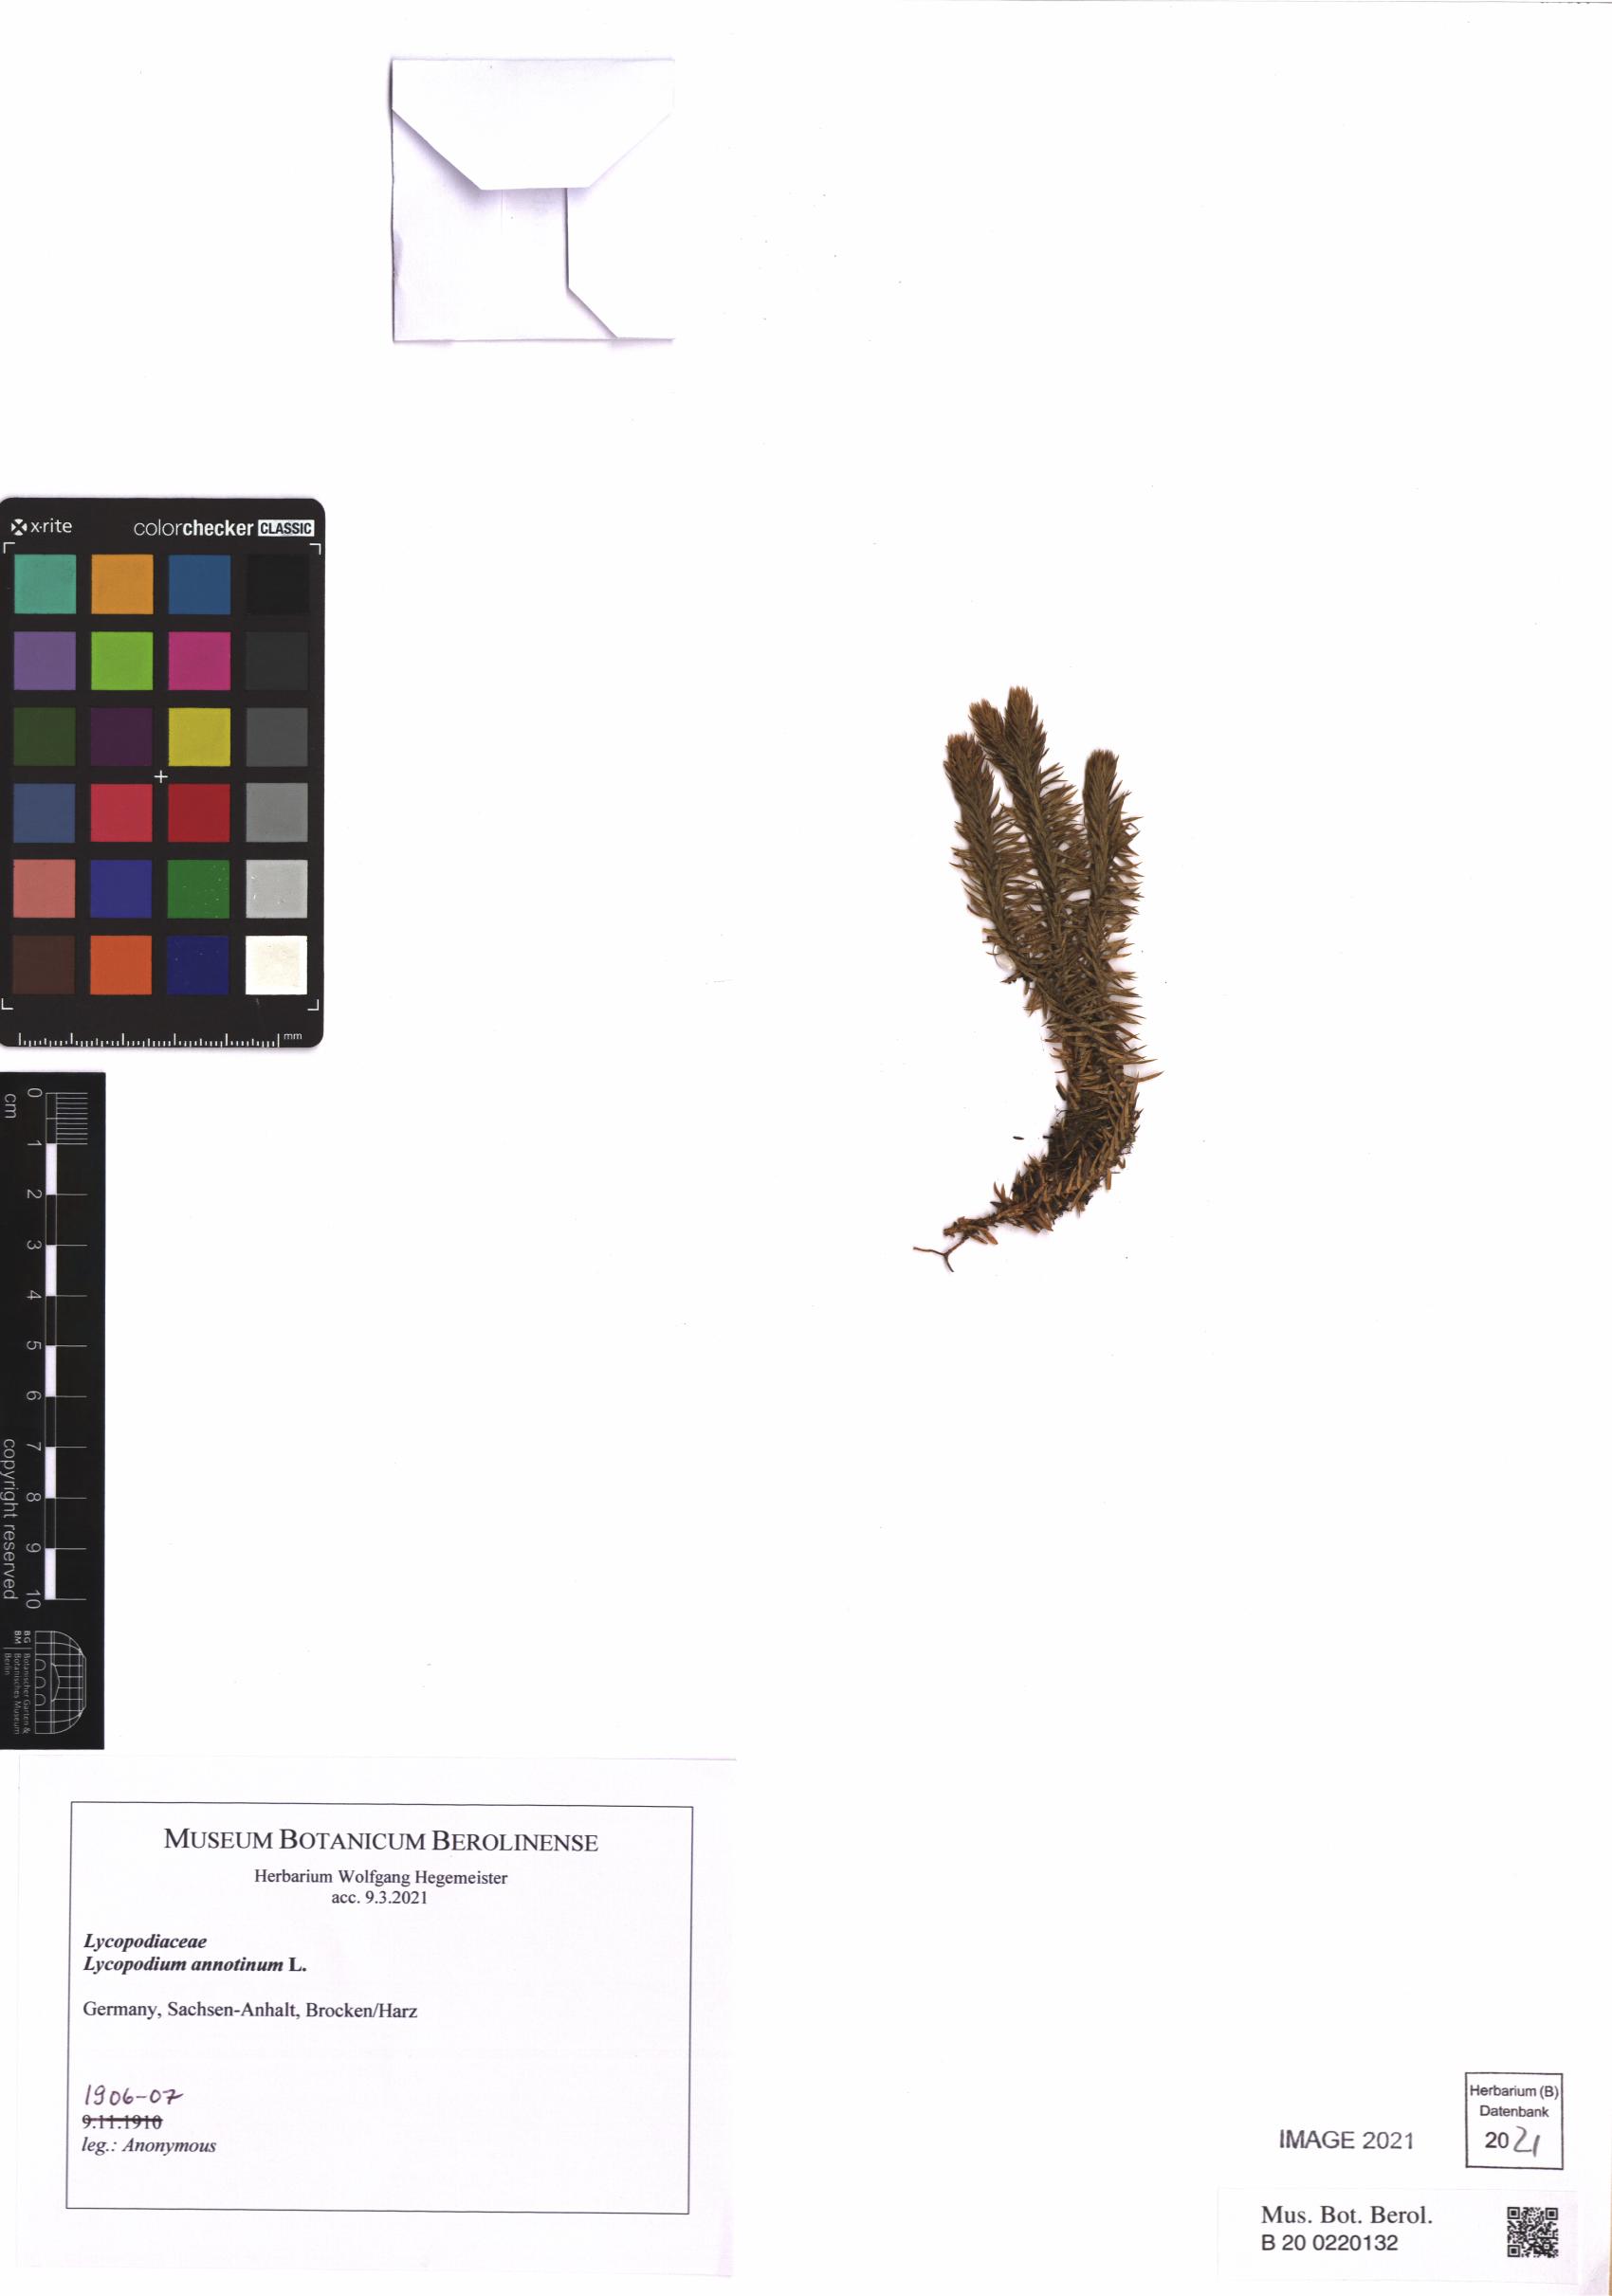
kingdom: Plantae
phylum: Tracheophyta
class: Lycopodiopsida
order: Lycopodiales
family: Lycopodiaceae
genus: Spinulum
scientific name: Spinulum annotinum
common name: Interrupted club-moss
